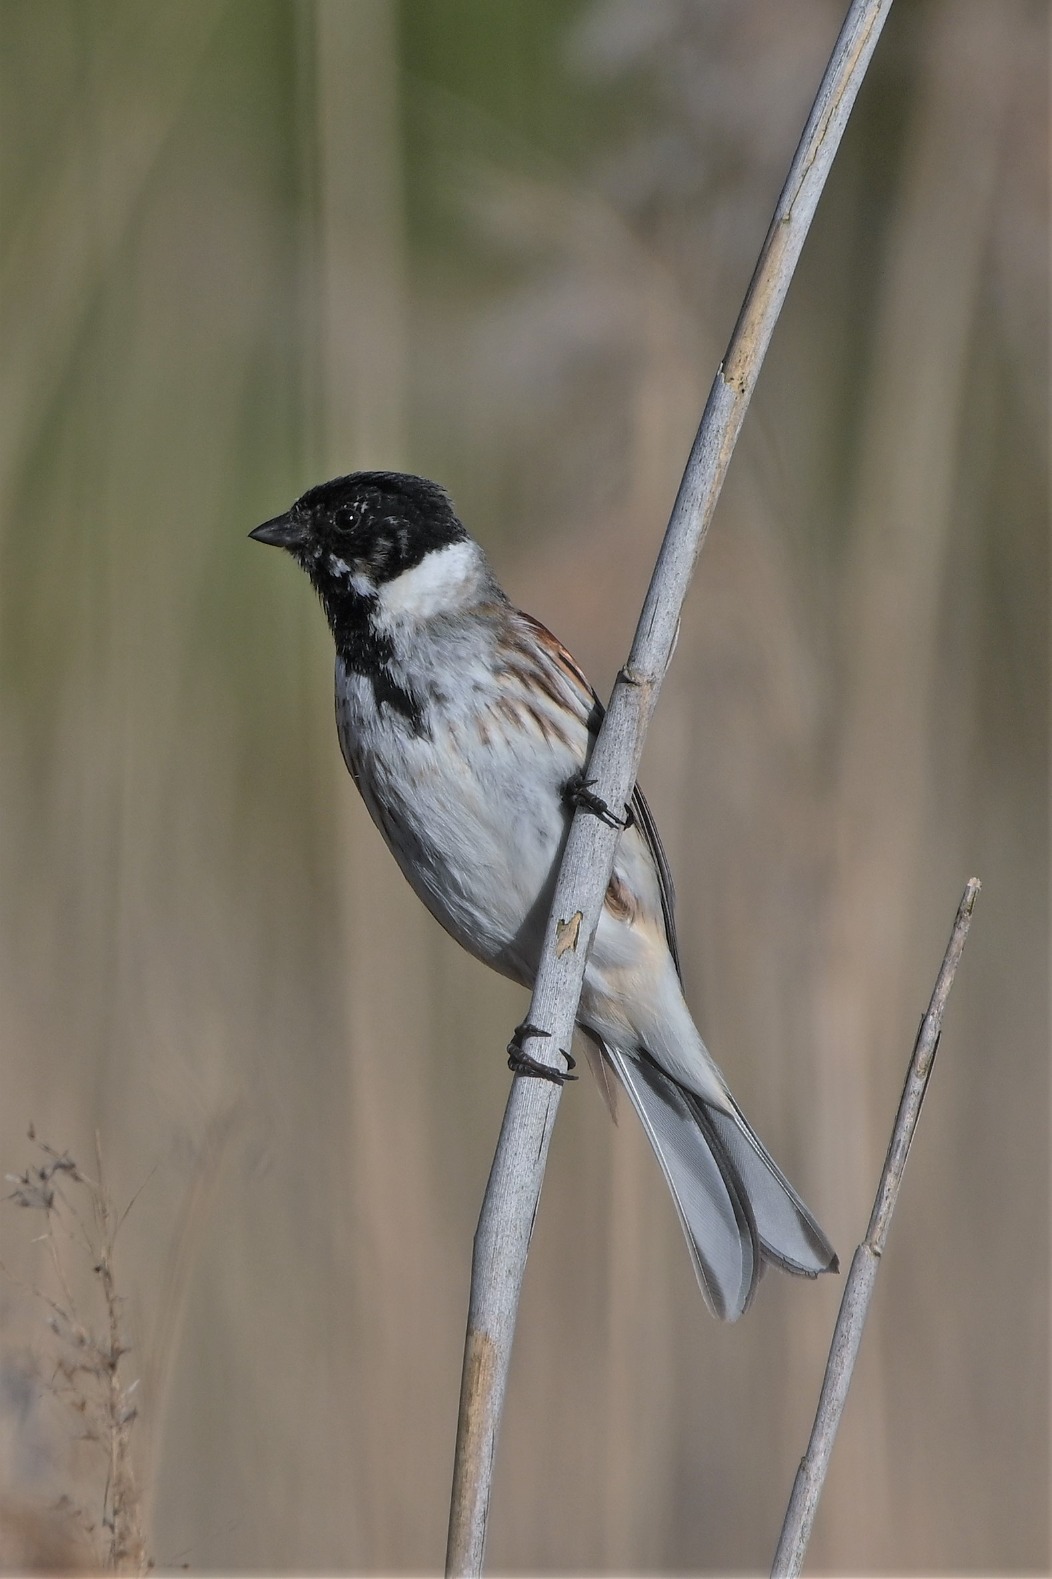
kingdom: Animalia
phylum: Chordata
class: Aves
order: Passeriformes
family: Emberizidae
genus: Emberiza
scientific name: Emberiza schoeniclus
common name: Rørspurv
